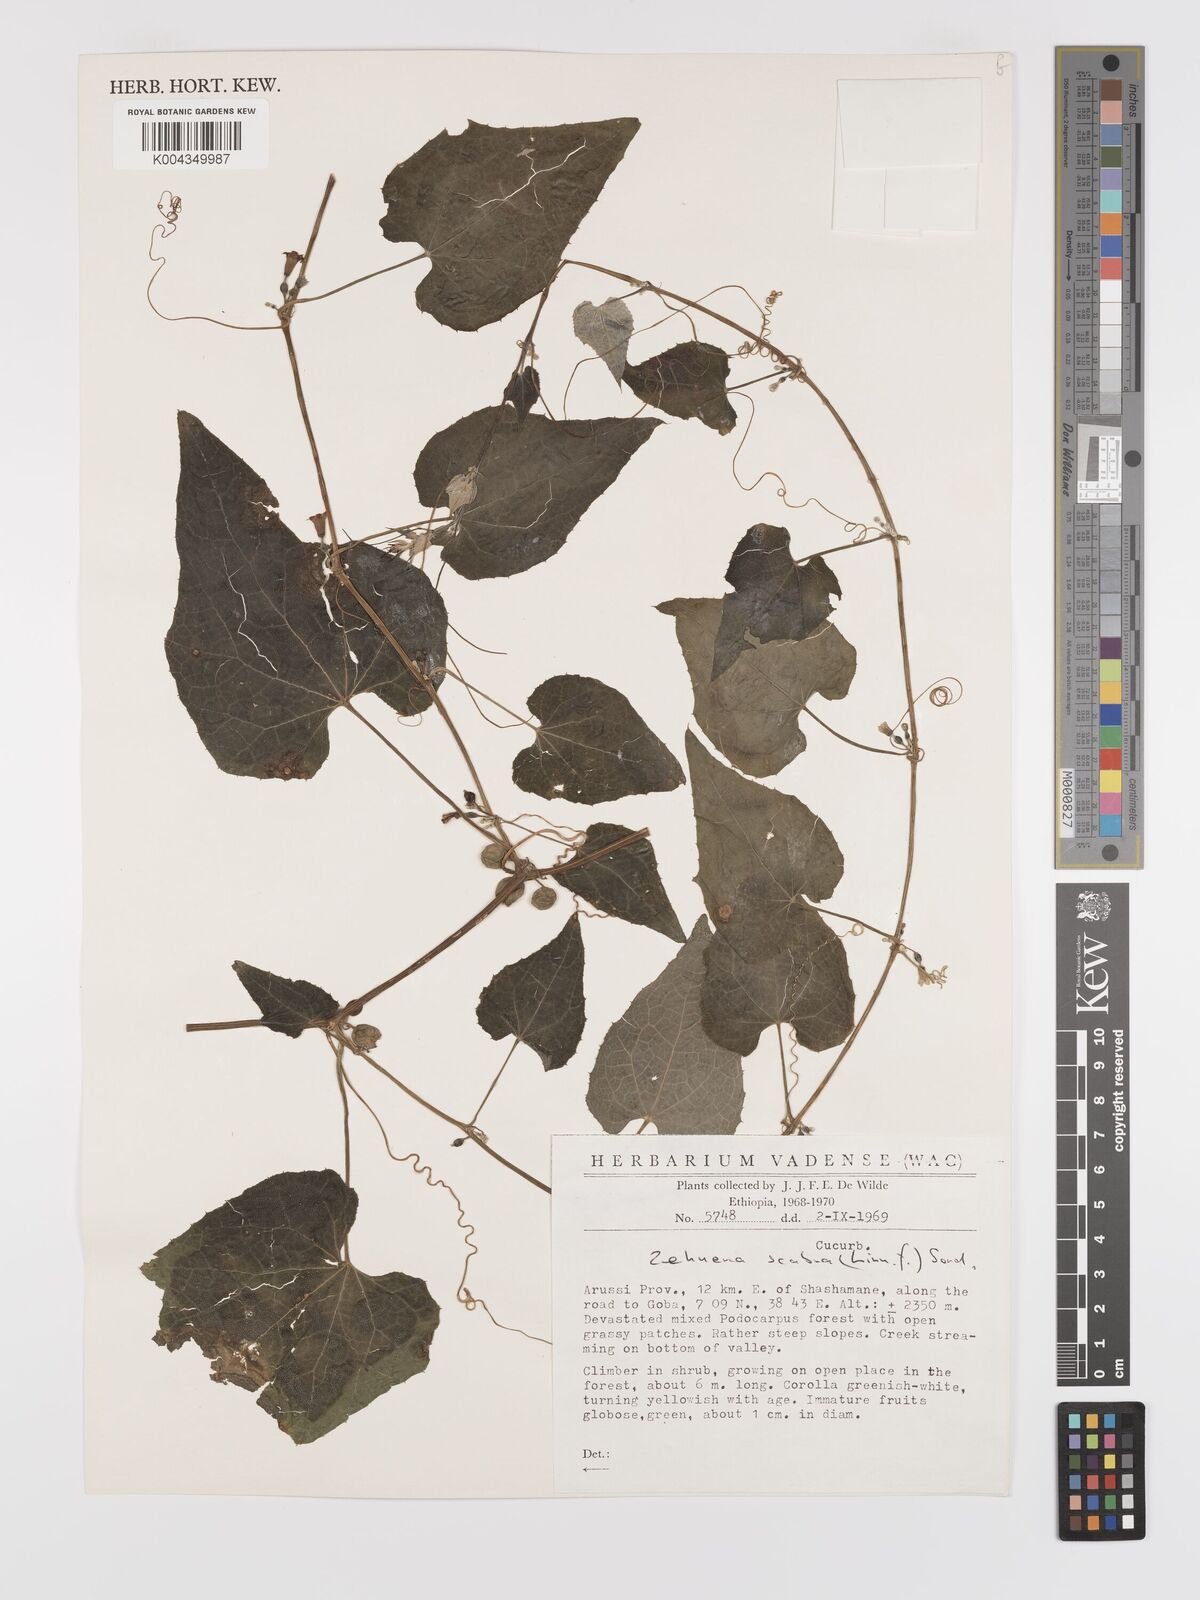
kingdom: Plantae
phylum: Tracheophyta
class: Magnoliopsida
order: Cucurbitales
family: Cucurbitaceae
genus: Zehneria
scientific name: Zehneria scabra
